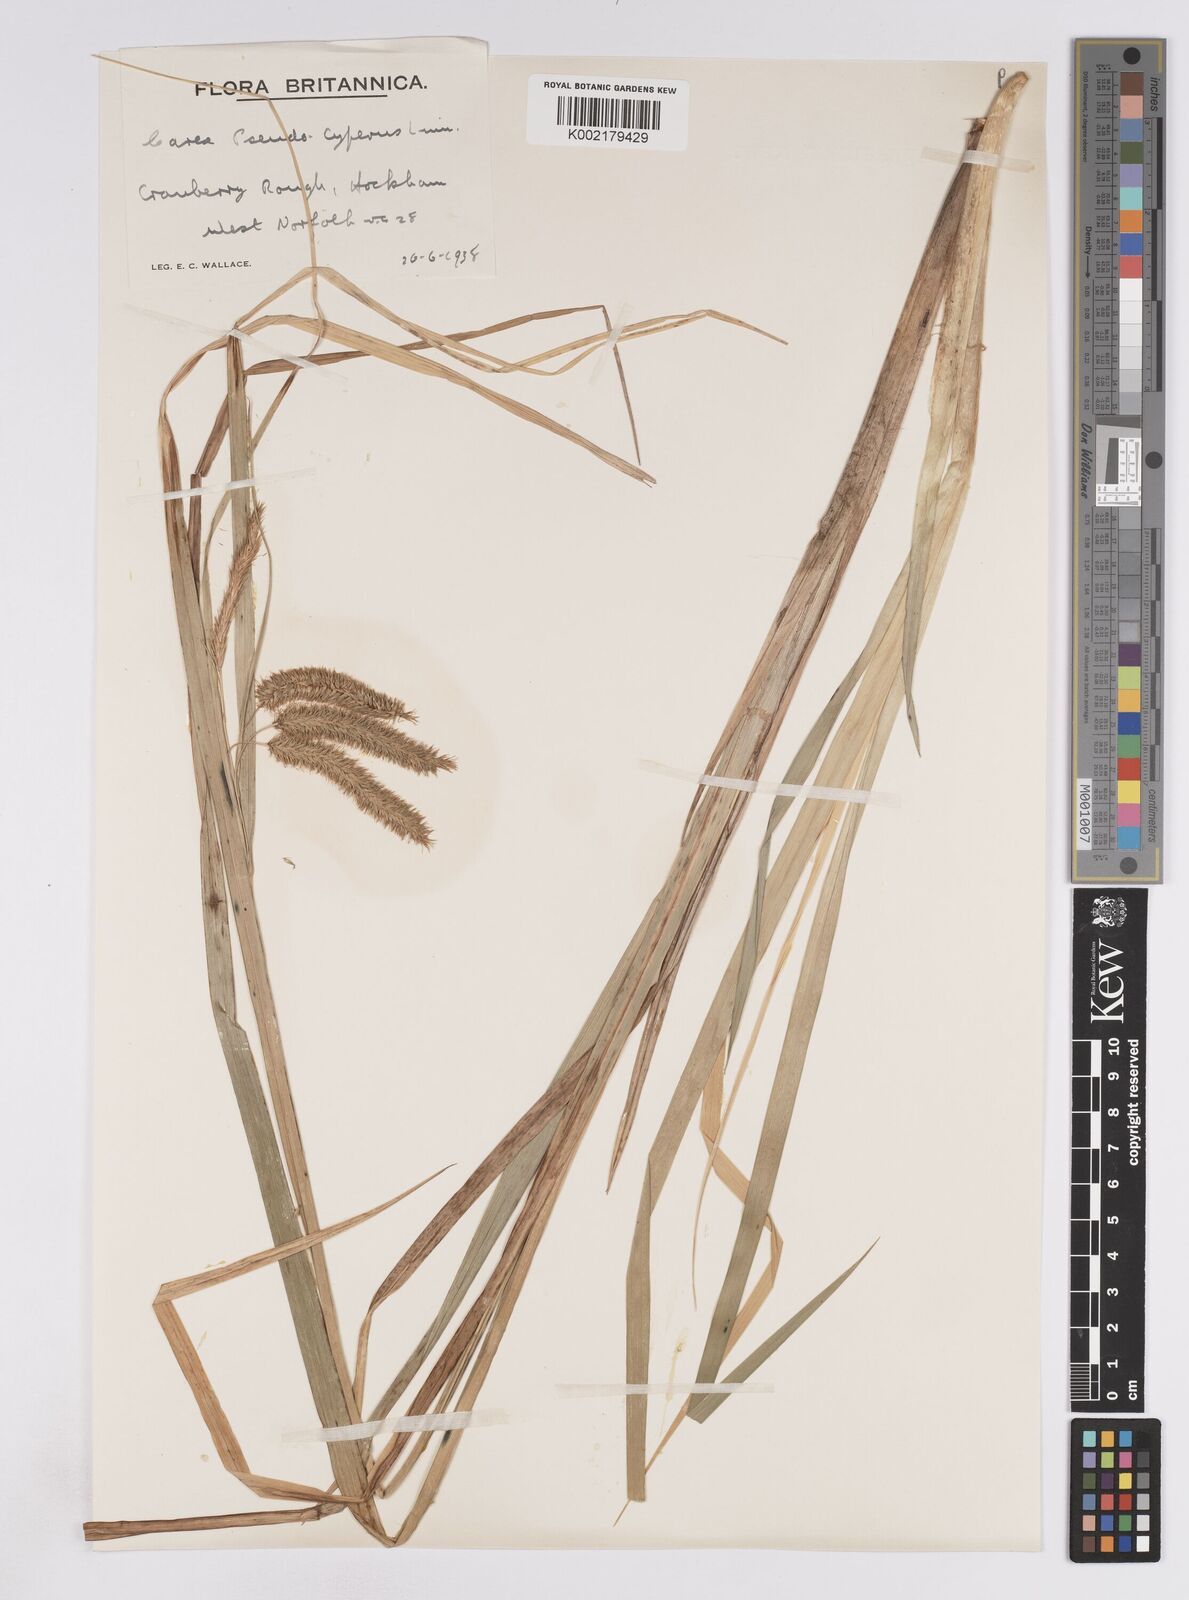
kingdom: Plantae
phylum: Tracheophyta
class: Liliopsida
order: Poales
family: Cyperaceae
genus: Carex
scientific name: Carex pseudocyperus
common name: Cyperus sedge
